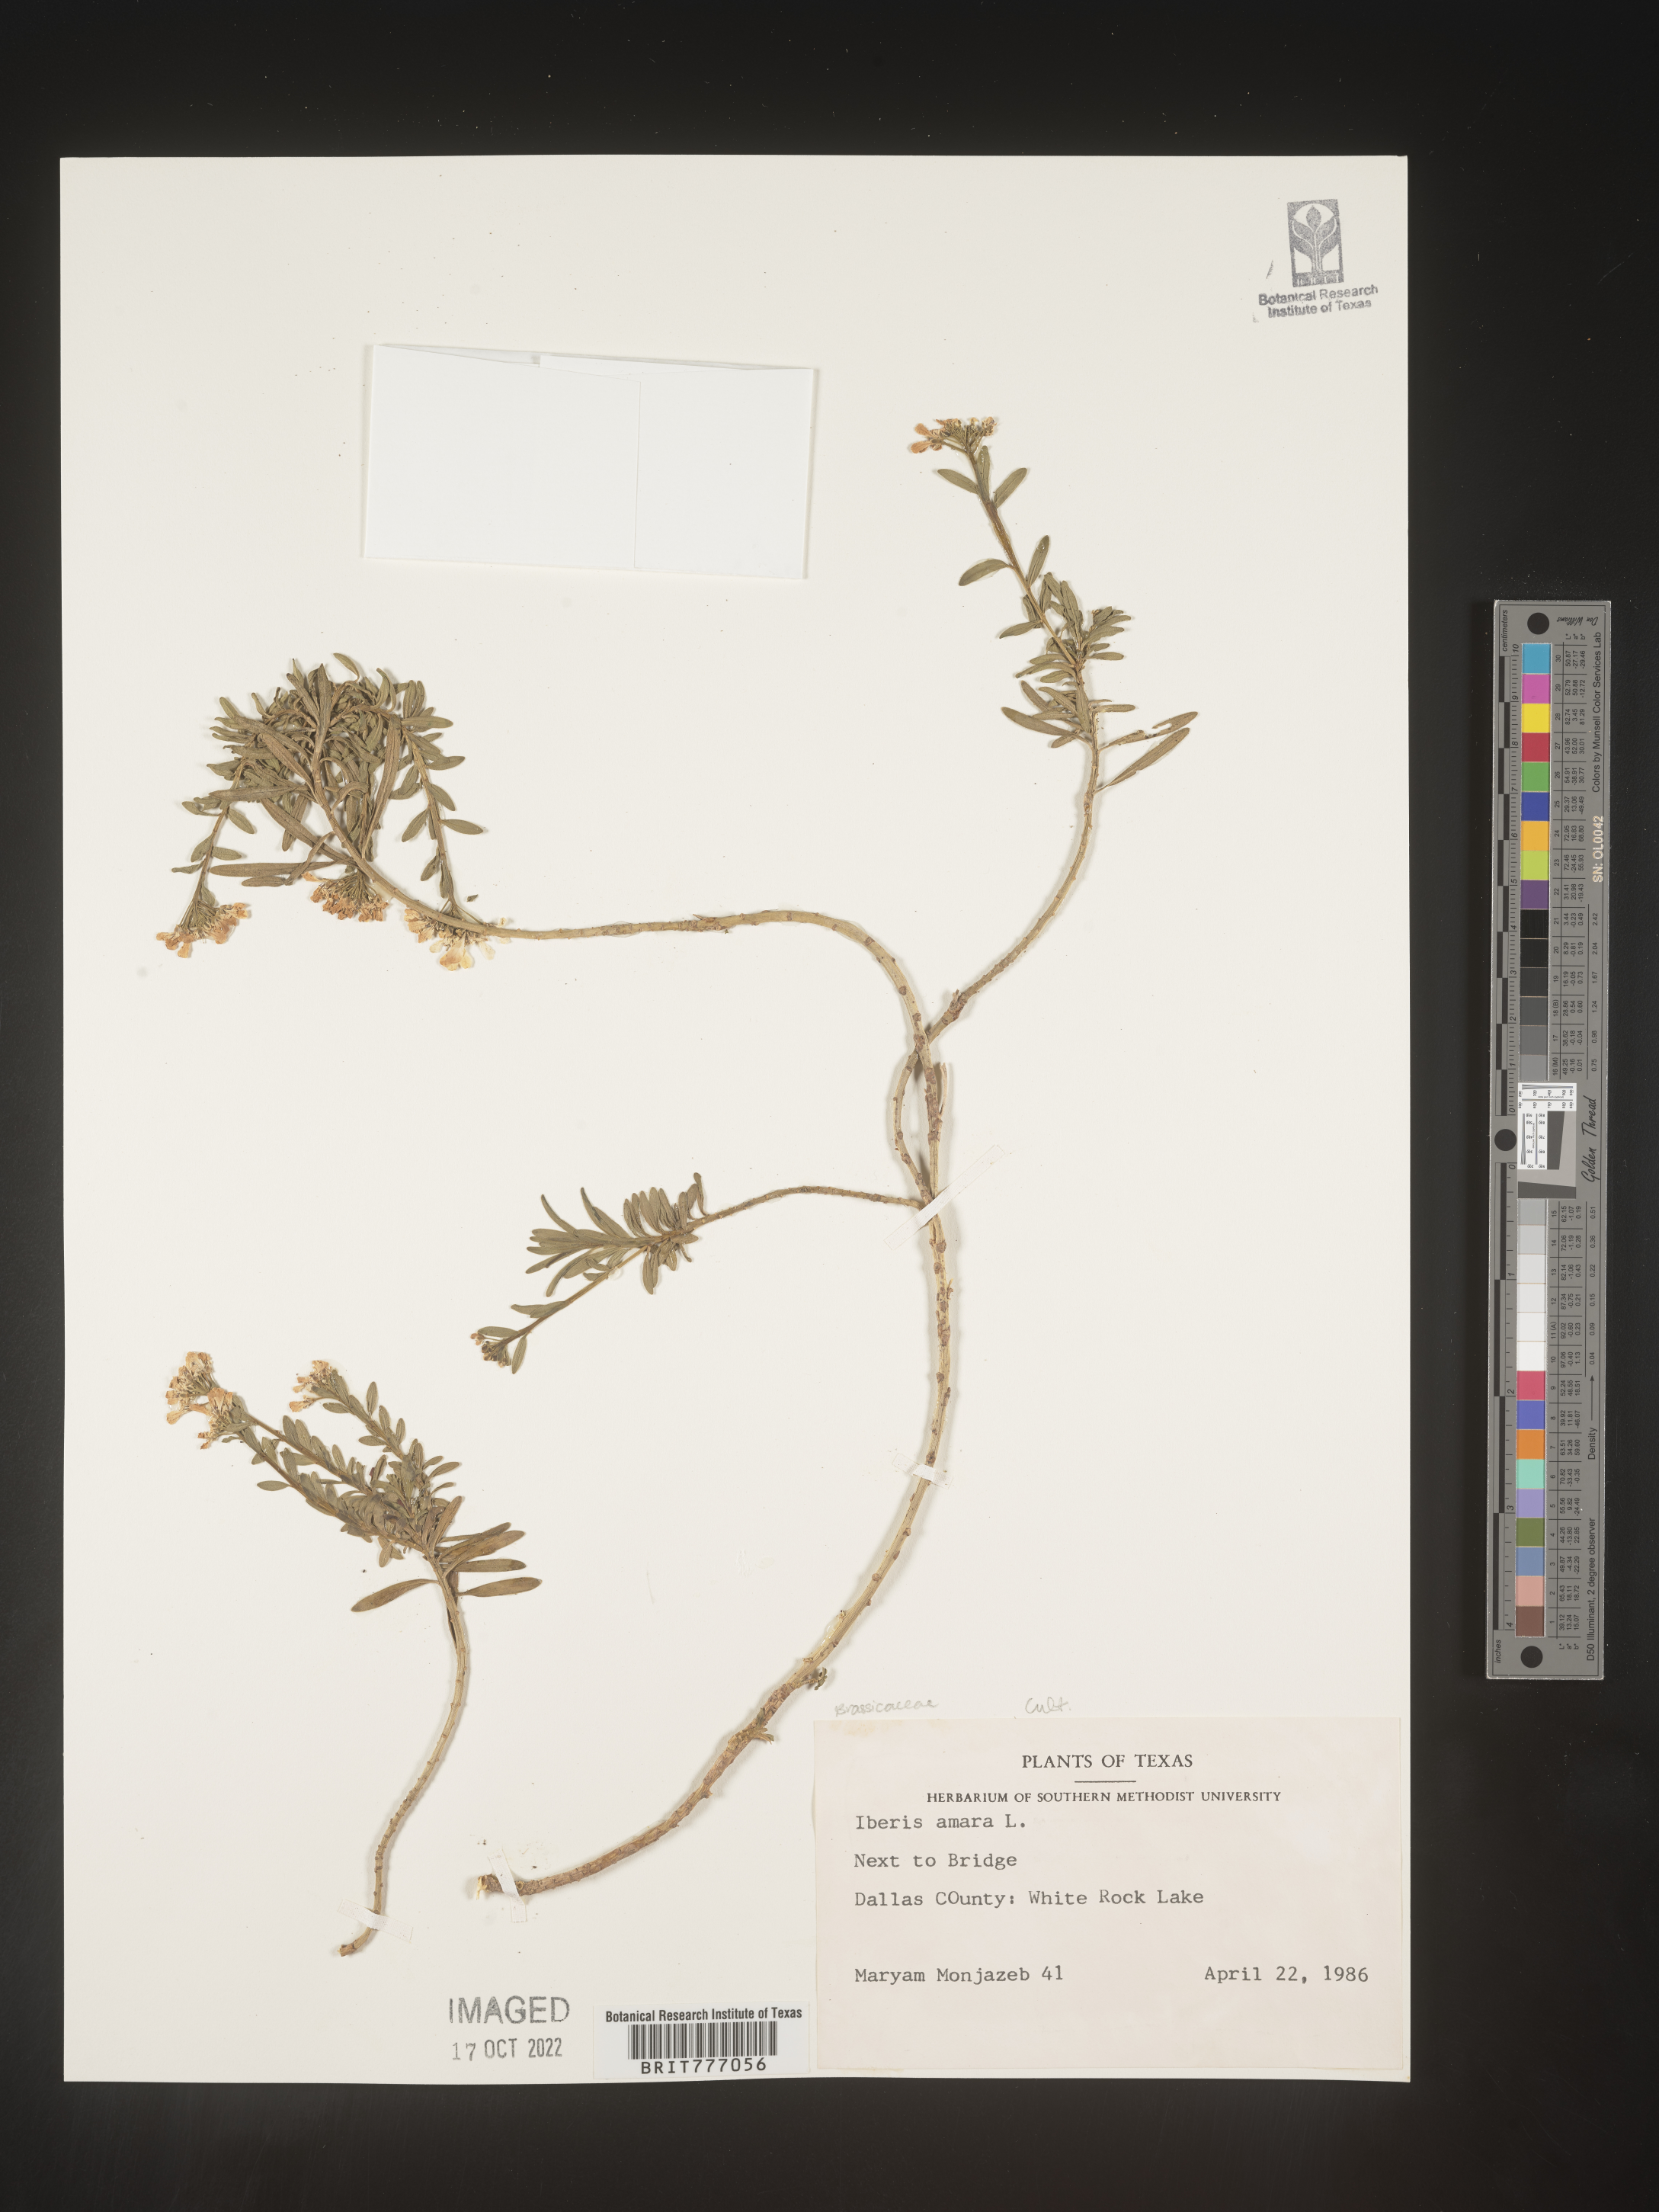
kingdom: Plantae
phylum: Tracheophyta
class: Magnoliopsida
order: Brassicales
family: Brassicaceae
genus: Iberis
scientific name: Iberis
